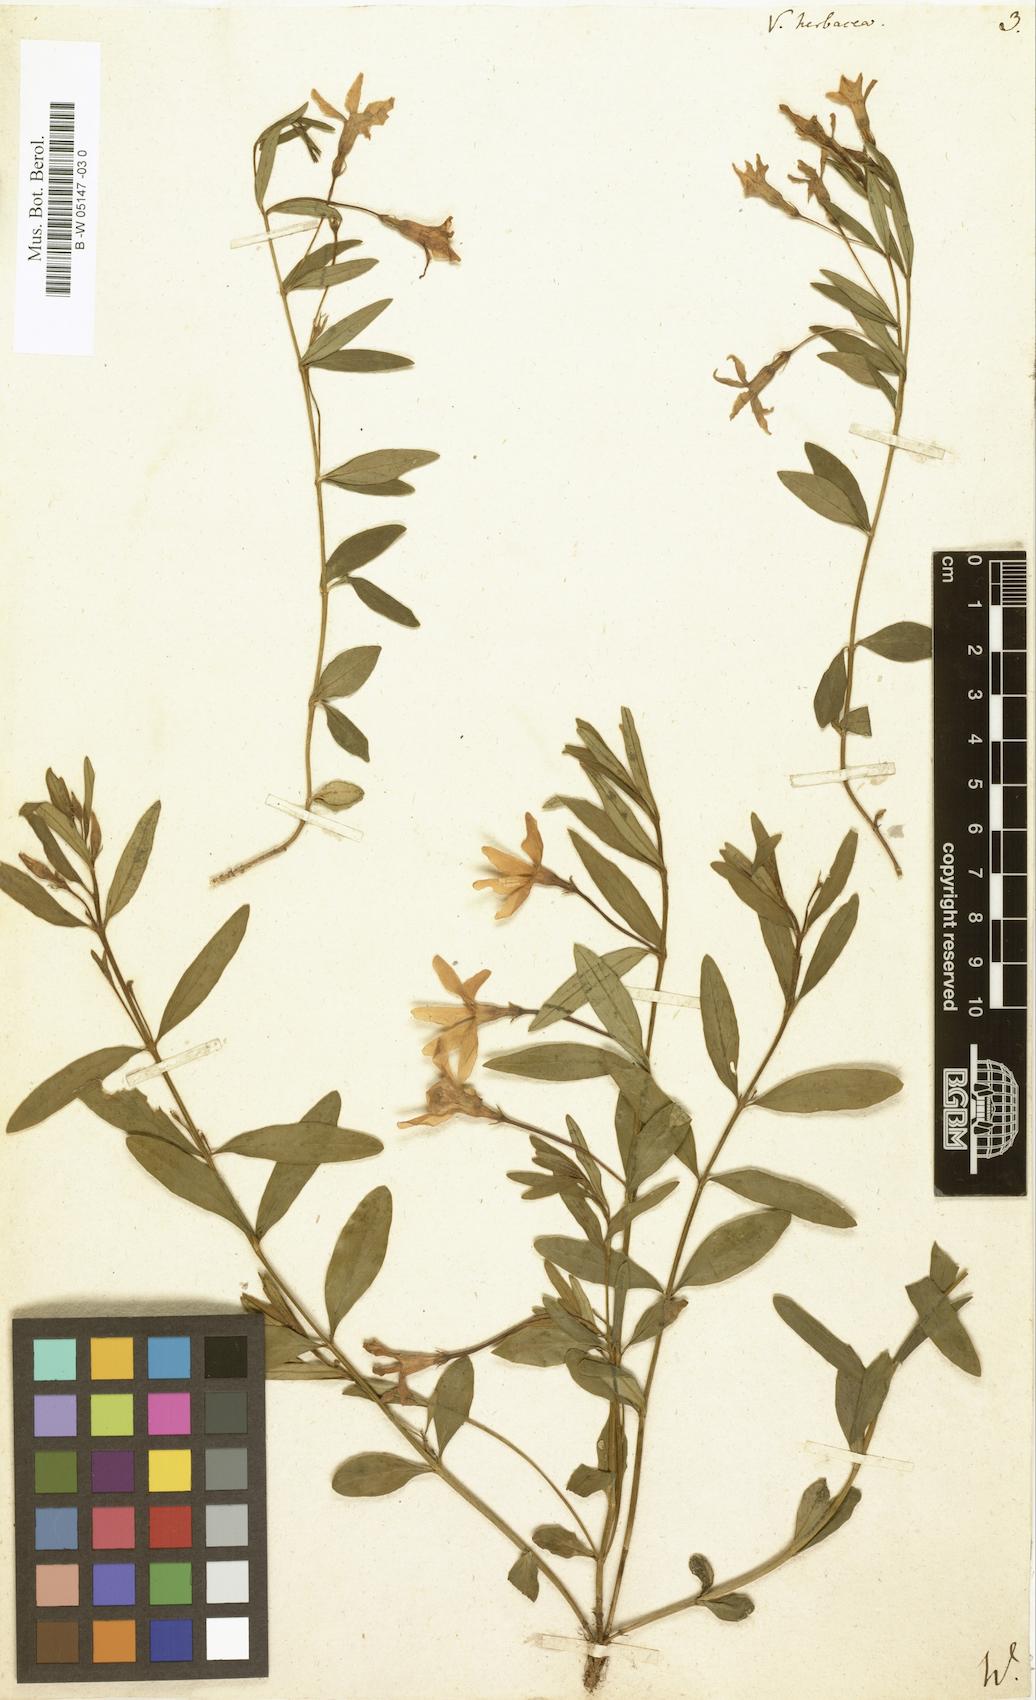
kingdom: Plantae
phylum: Tracheophyta
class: Magnoliopsida
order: Gentianales
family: Apocynaceae
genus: Vinca
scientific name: Vinca herbacea
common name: Herbaceous periwinkle
